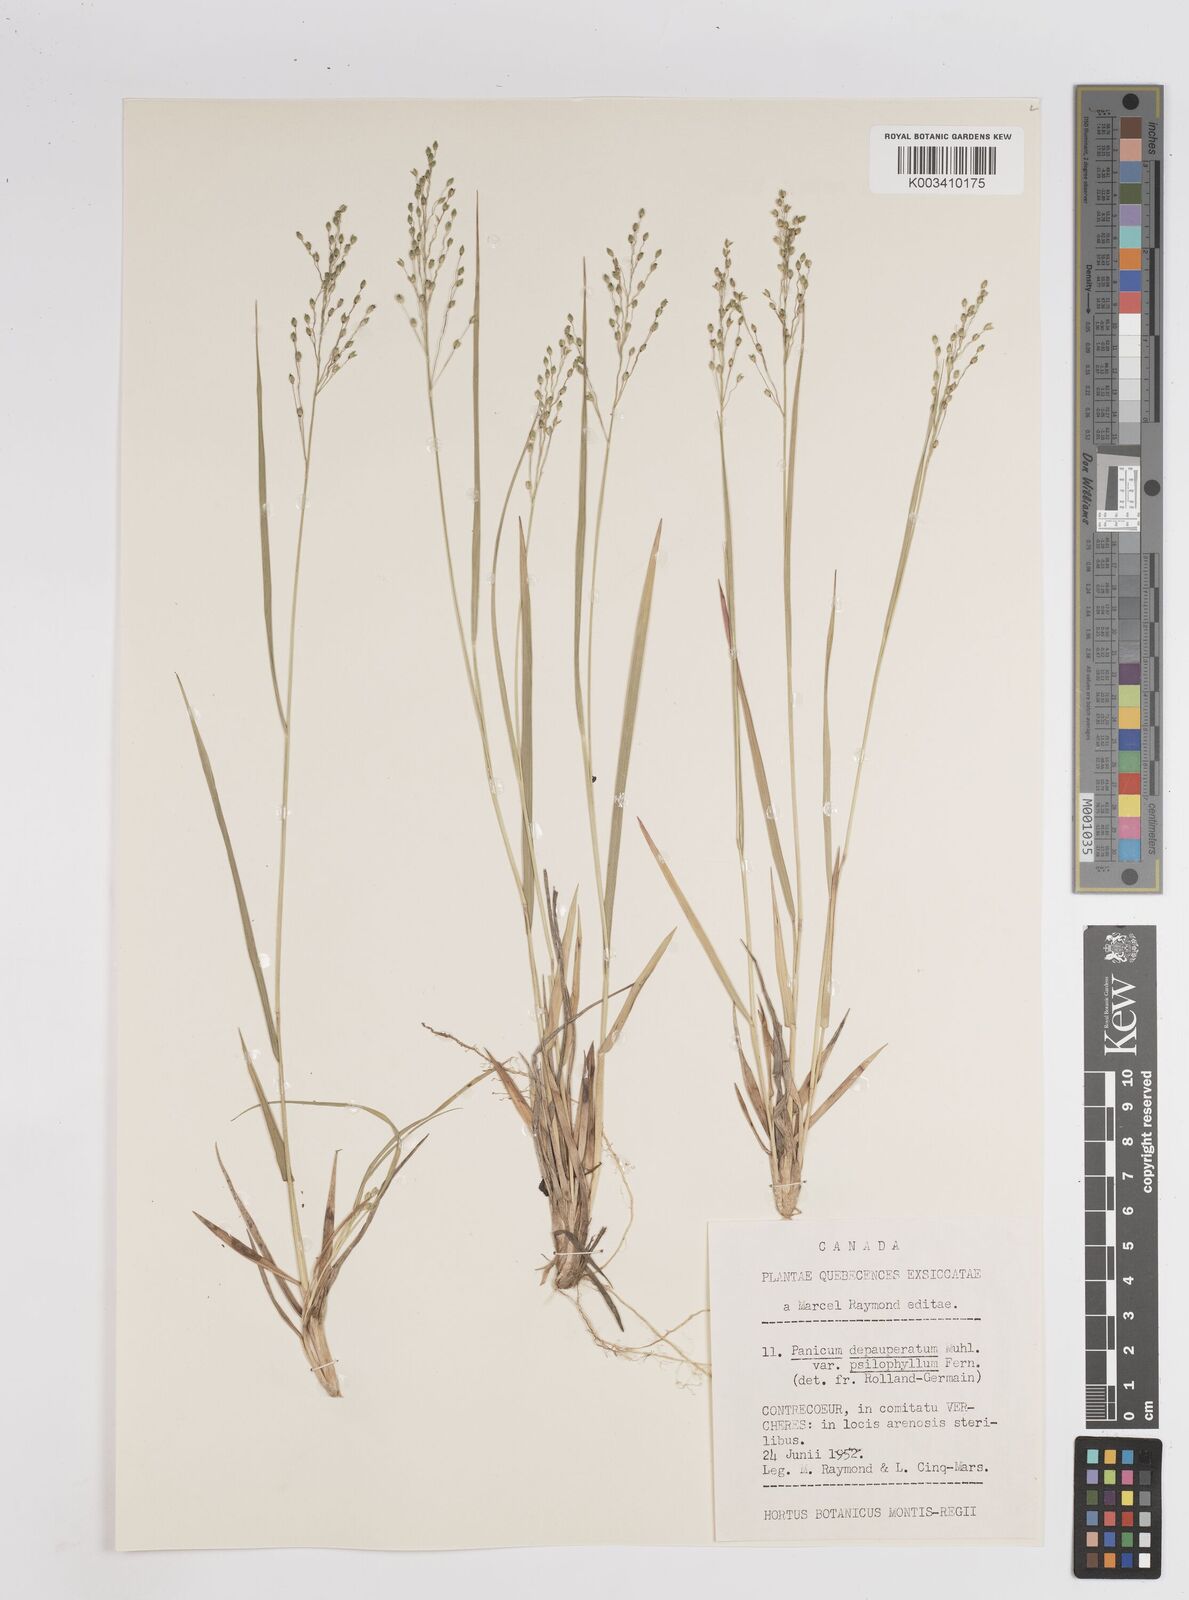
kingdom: Plantae
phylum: Tracheophyta
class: Liliopsida
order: Poales
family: Poaceae
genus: Dichanthelium
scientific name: Dichanthelium depauperatum
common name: Depauperate panicgrass
